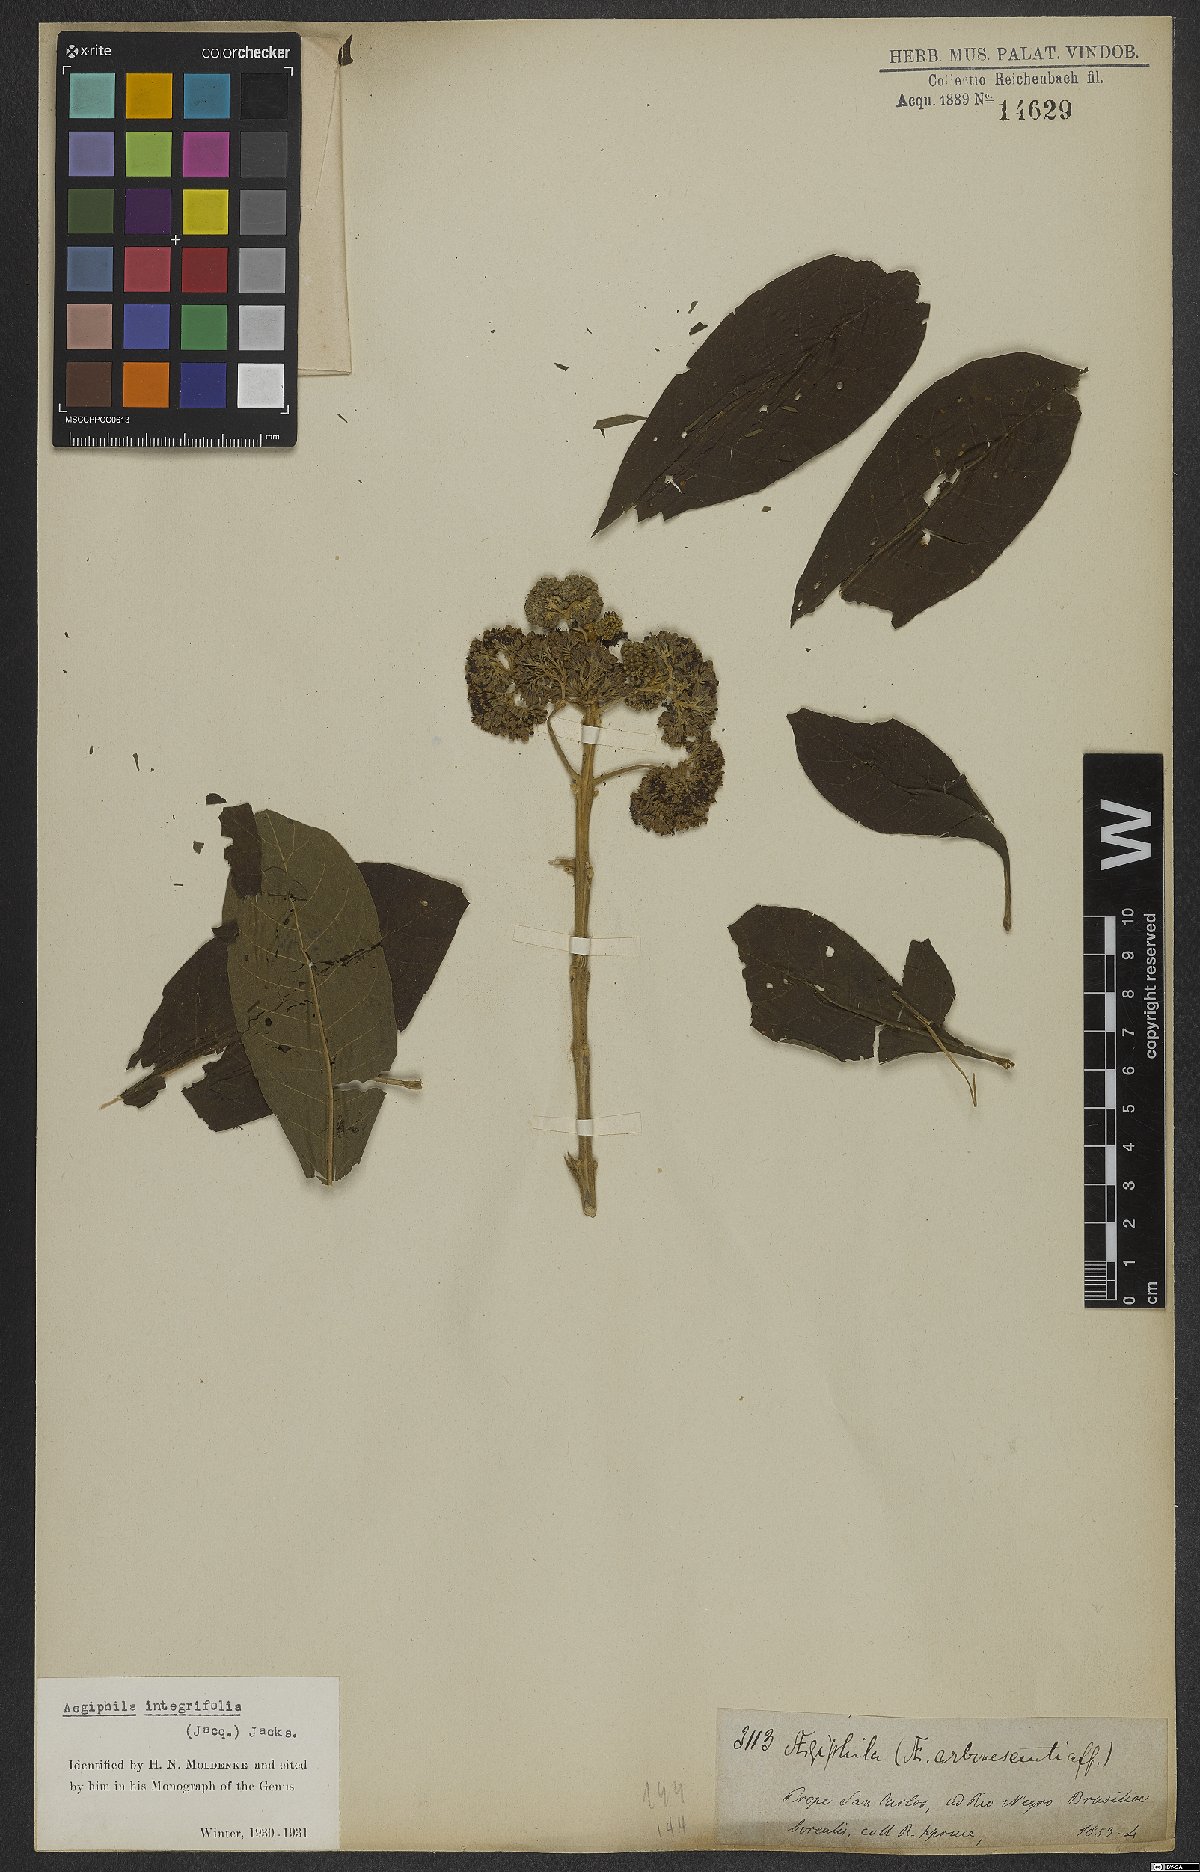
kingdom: Plantae
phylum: Tracheophyta
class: Magnoliopsida
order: Lamiales
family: Lamiaceae
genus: Aegiphila
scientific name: Aegiphila integrifolia
